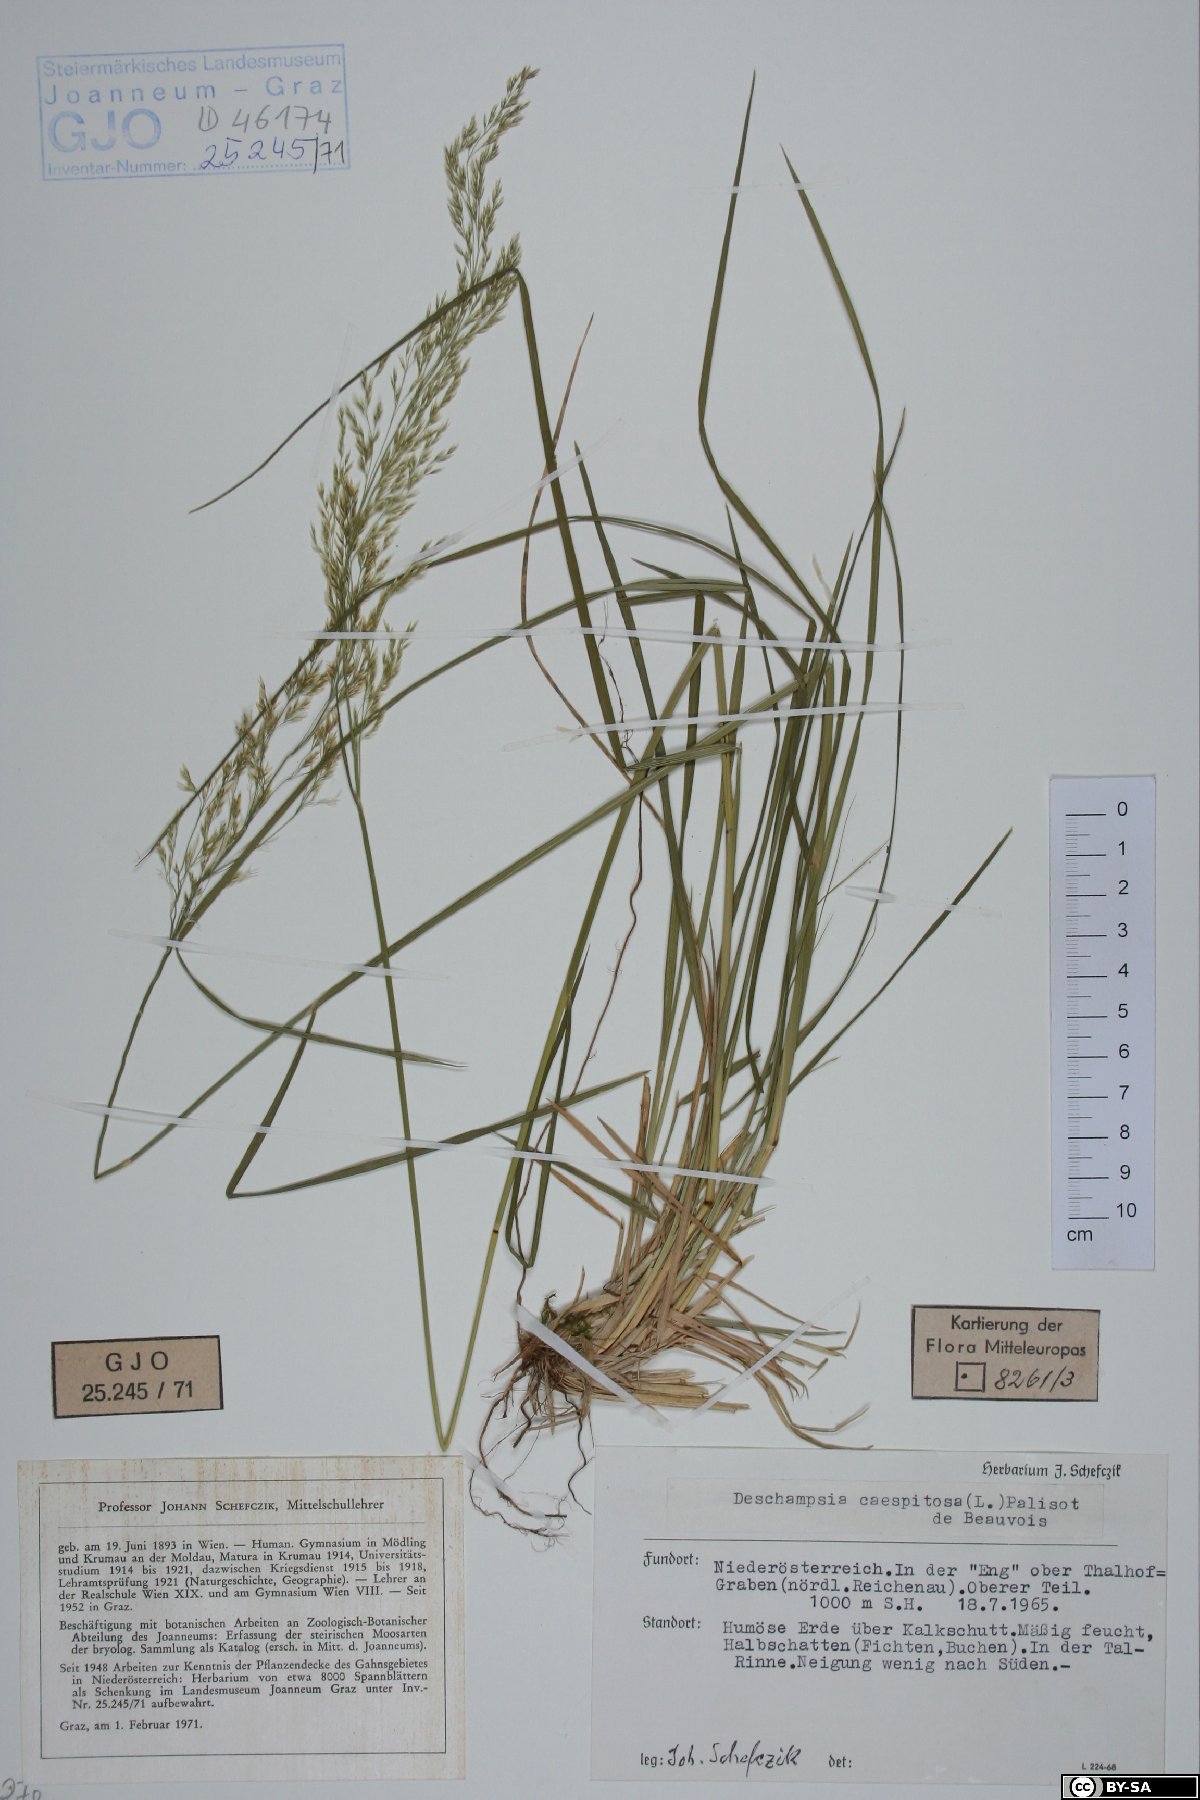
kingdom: Plantae
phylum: Tracheophyta
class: Liliopsida
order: Poales
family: Poaceae
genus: Deschampsia
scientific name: Deschampsia cespitosa
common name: Tufted hair-grass
